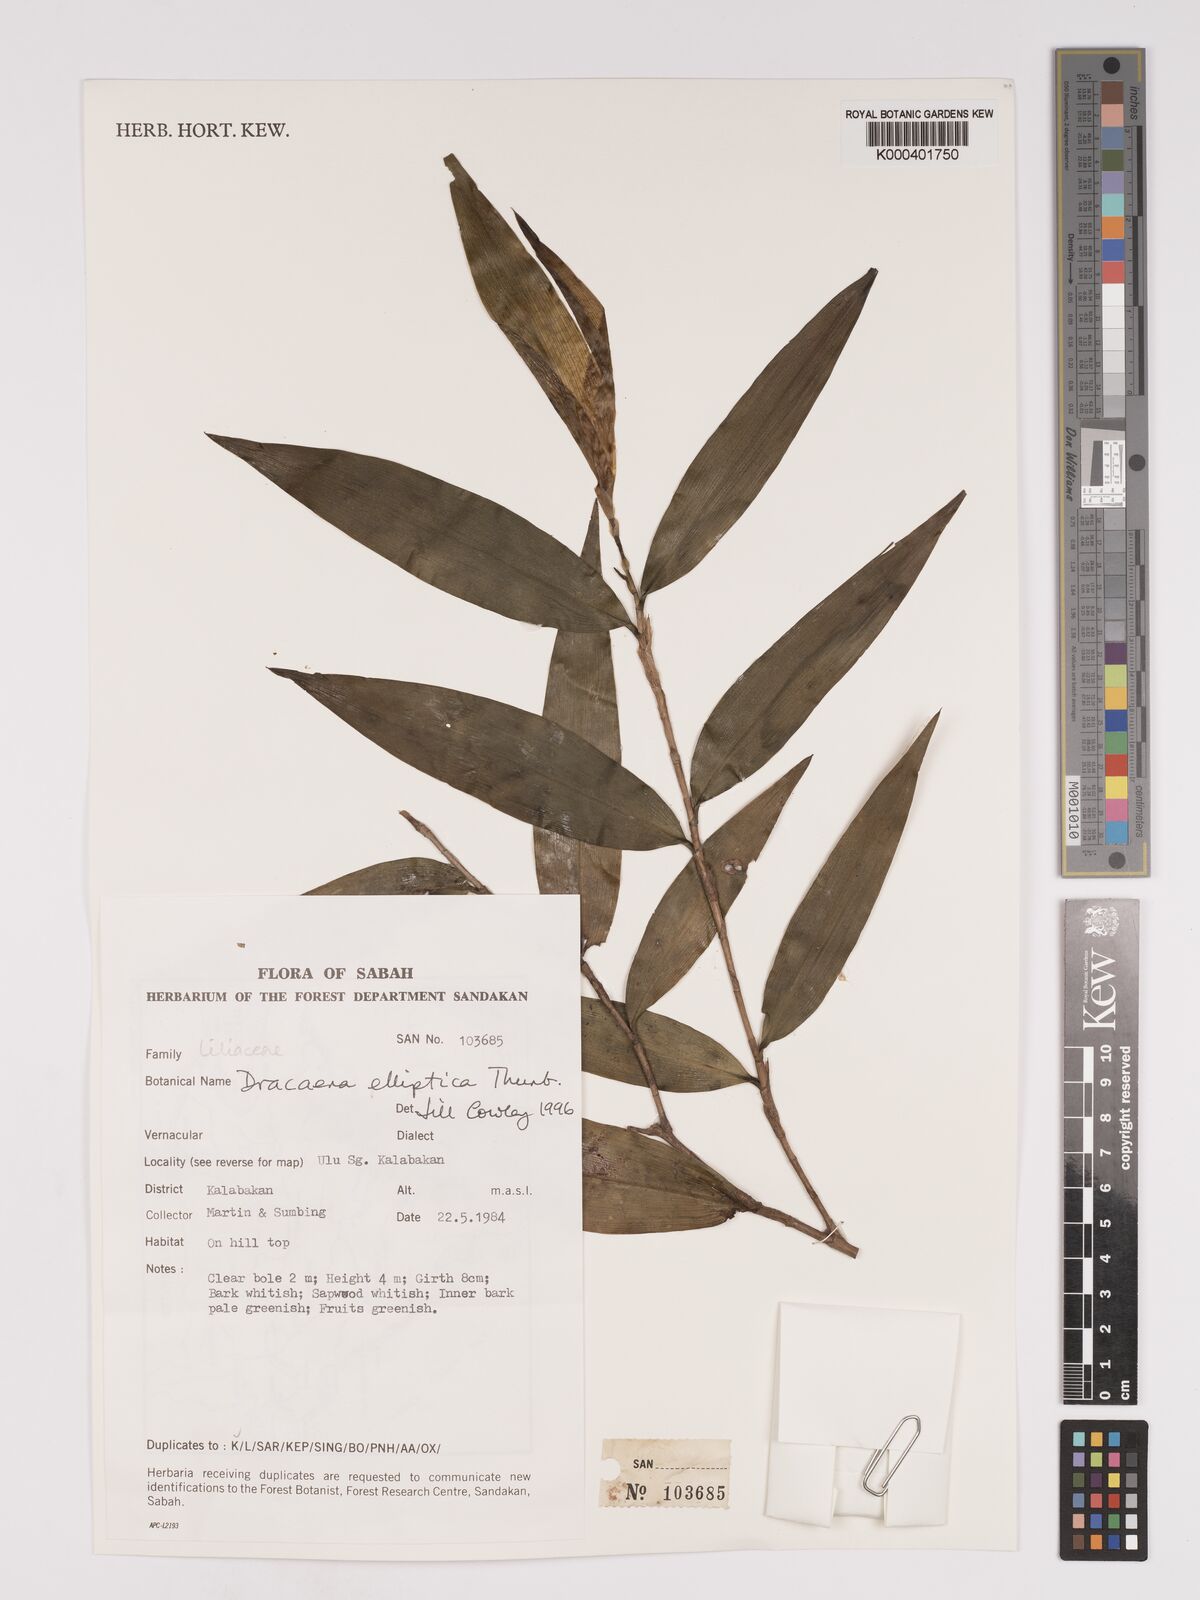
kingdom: Plantae
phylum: Tracheophyta
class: Liliopsida
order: Asparagales
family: Asparagaceae
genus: Dracaena
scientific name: Dracaena elliptica
